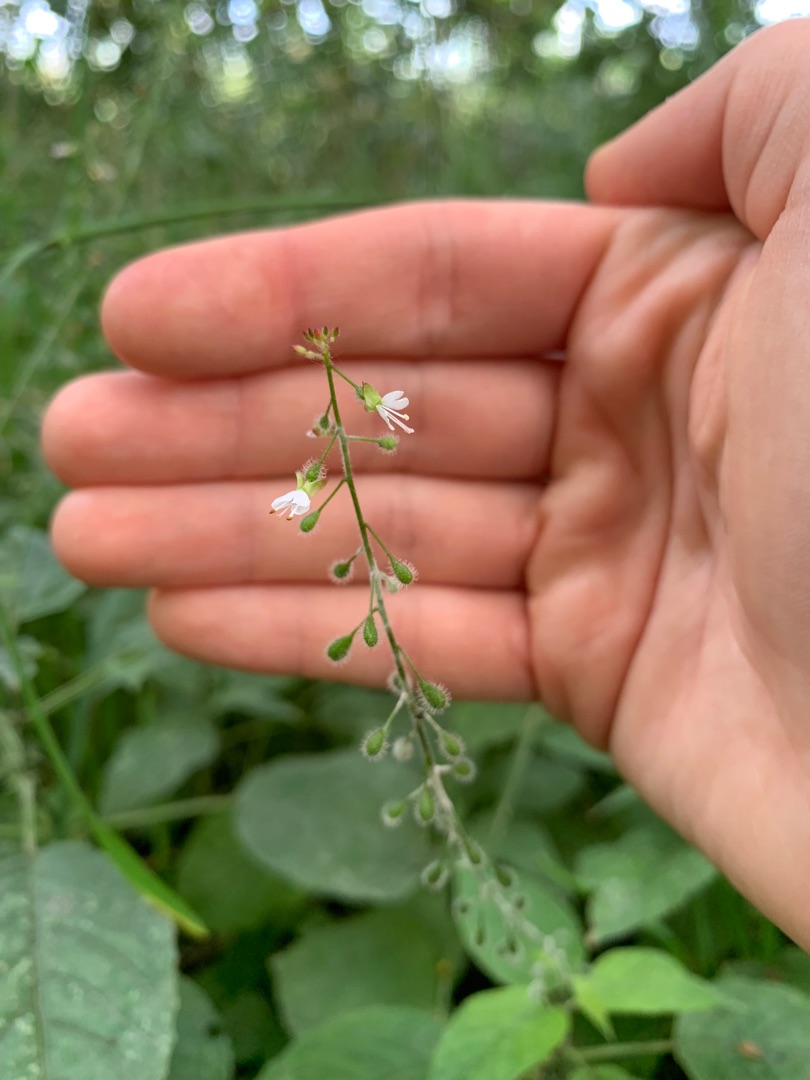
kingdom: Plantae
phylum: Tracheophyta
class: Magnoliopsida
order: Myrtales
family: Onagraceae
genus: Circaea
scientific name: Circaea lutetiana
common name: Dunet steffensurt
